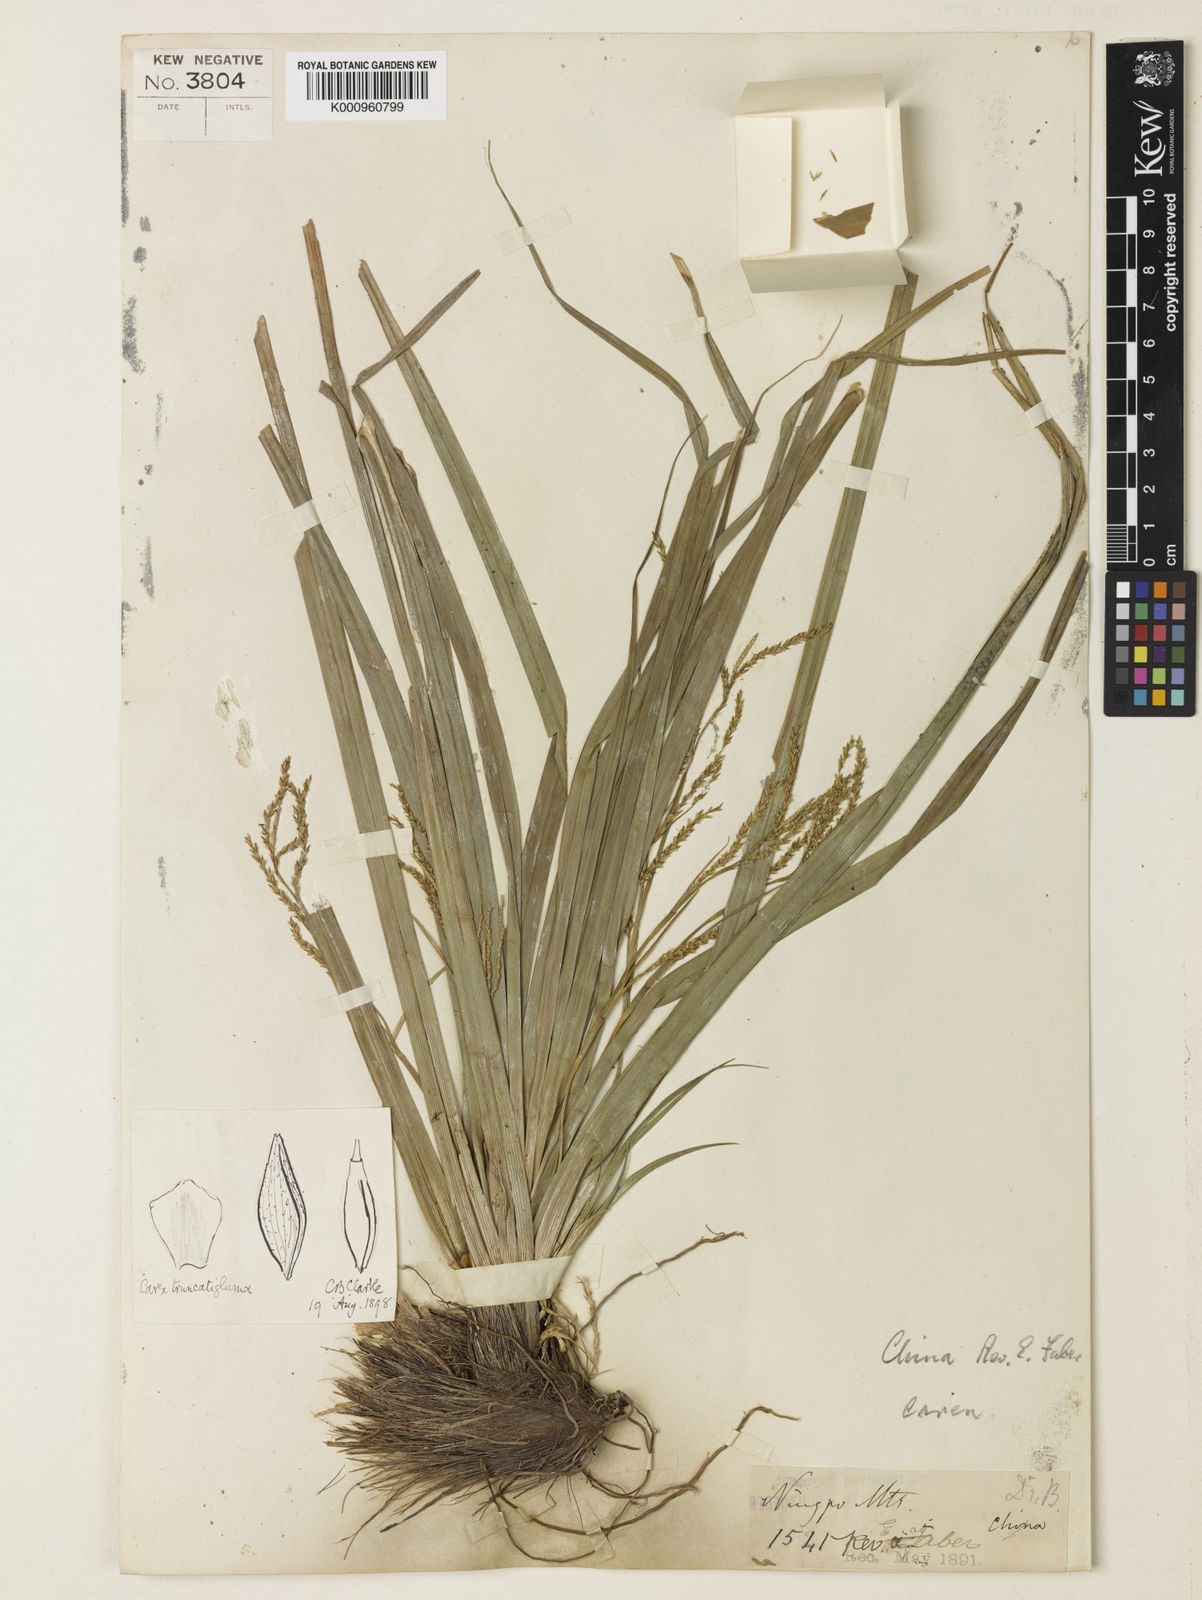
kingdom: Plantae
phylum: Tracheophyta
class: Liliopsida
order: Poales
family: Cyperaceae
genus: Carex
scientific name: Carex truncatigluma
